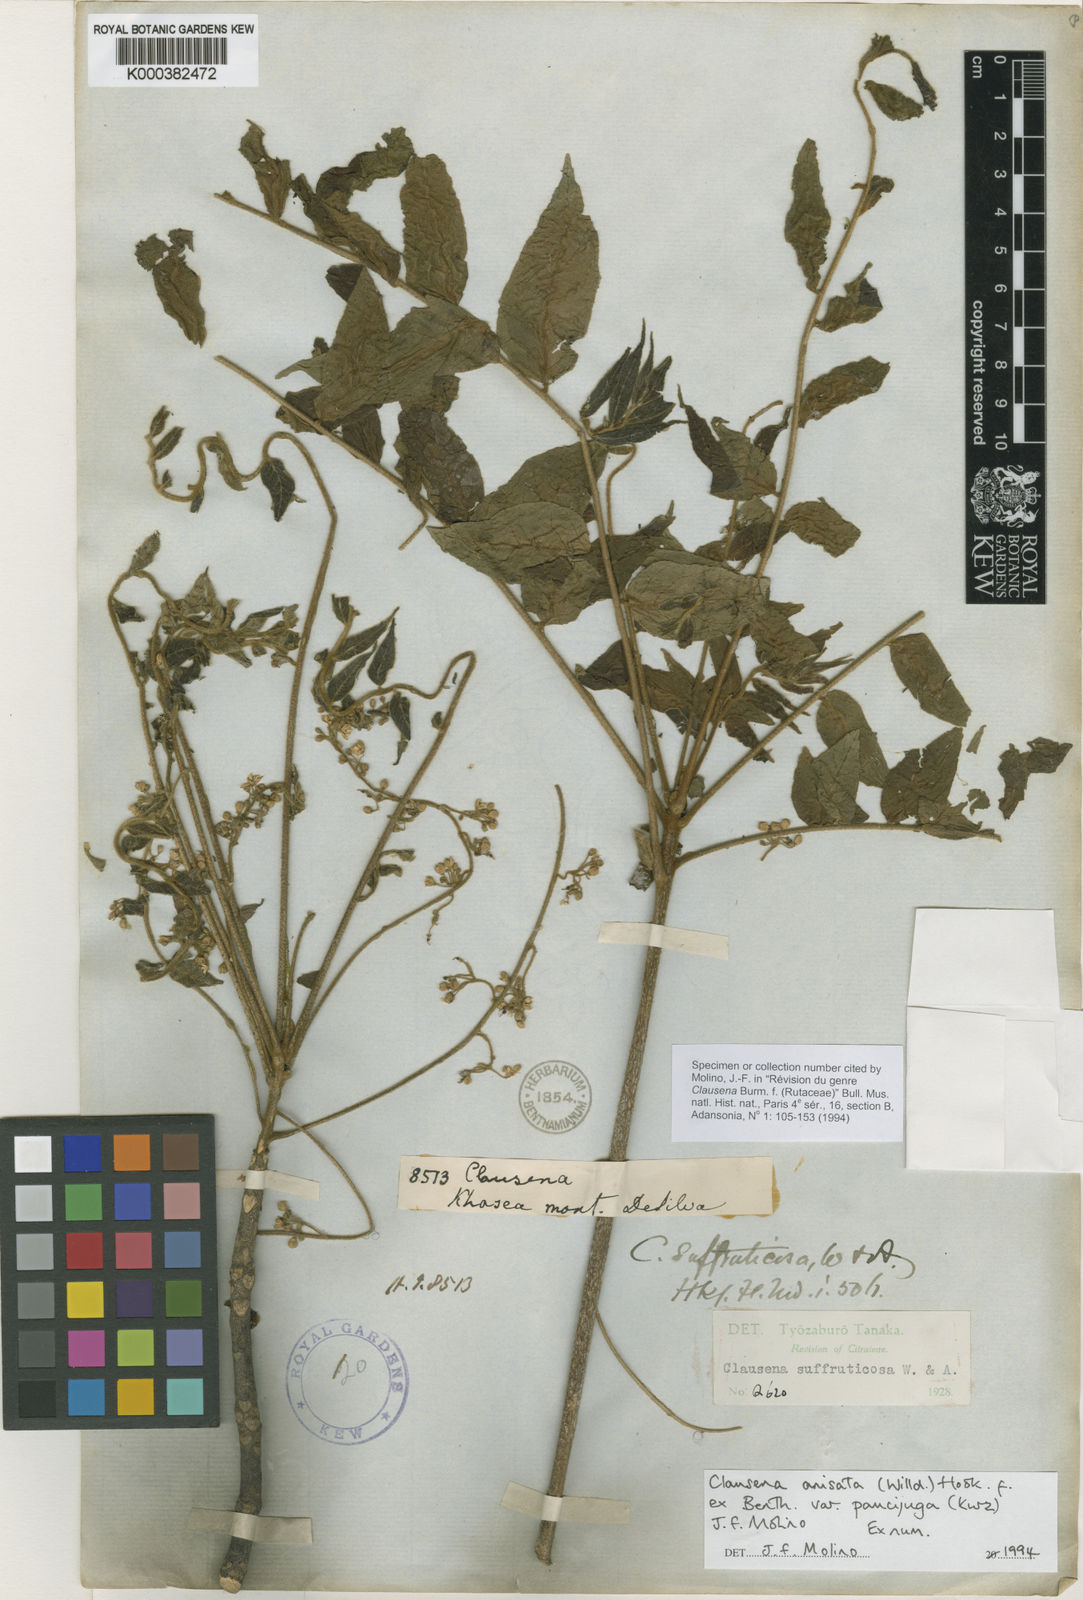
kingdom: Plantae
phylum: Tracheophyta
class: Magnoliopsida
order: Sapindales
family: Rutaceae
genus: Clausena
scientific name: Clausena anisata
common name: Horsewood
